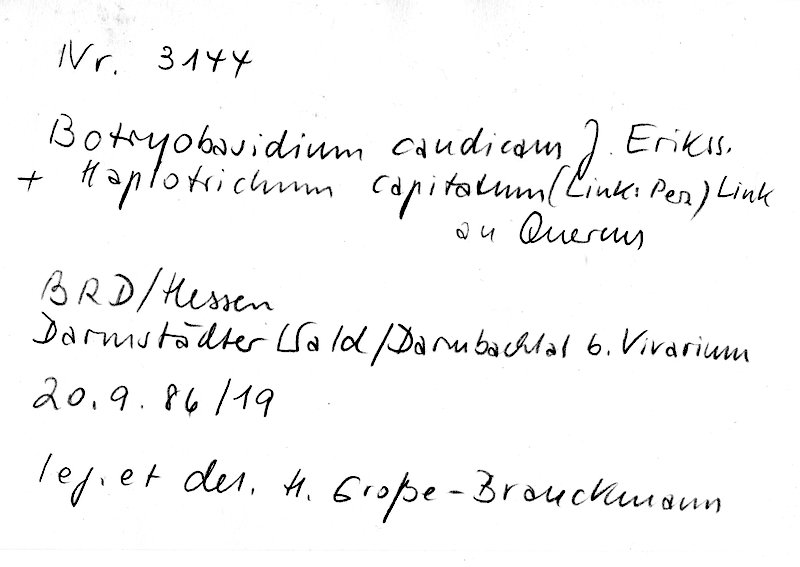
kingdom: Fungi
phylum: Basidiomycota
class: Agaricomycetes
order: Cantharellales
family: Botryobasidiaceae
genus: Botryobasidium
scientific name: Botryobasidium candicans
